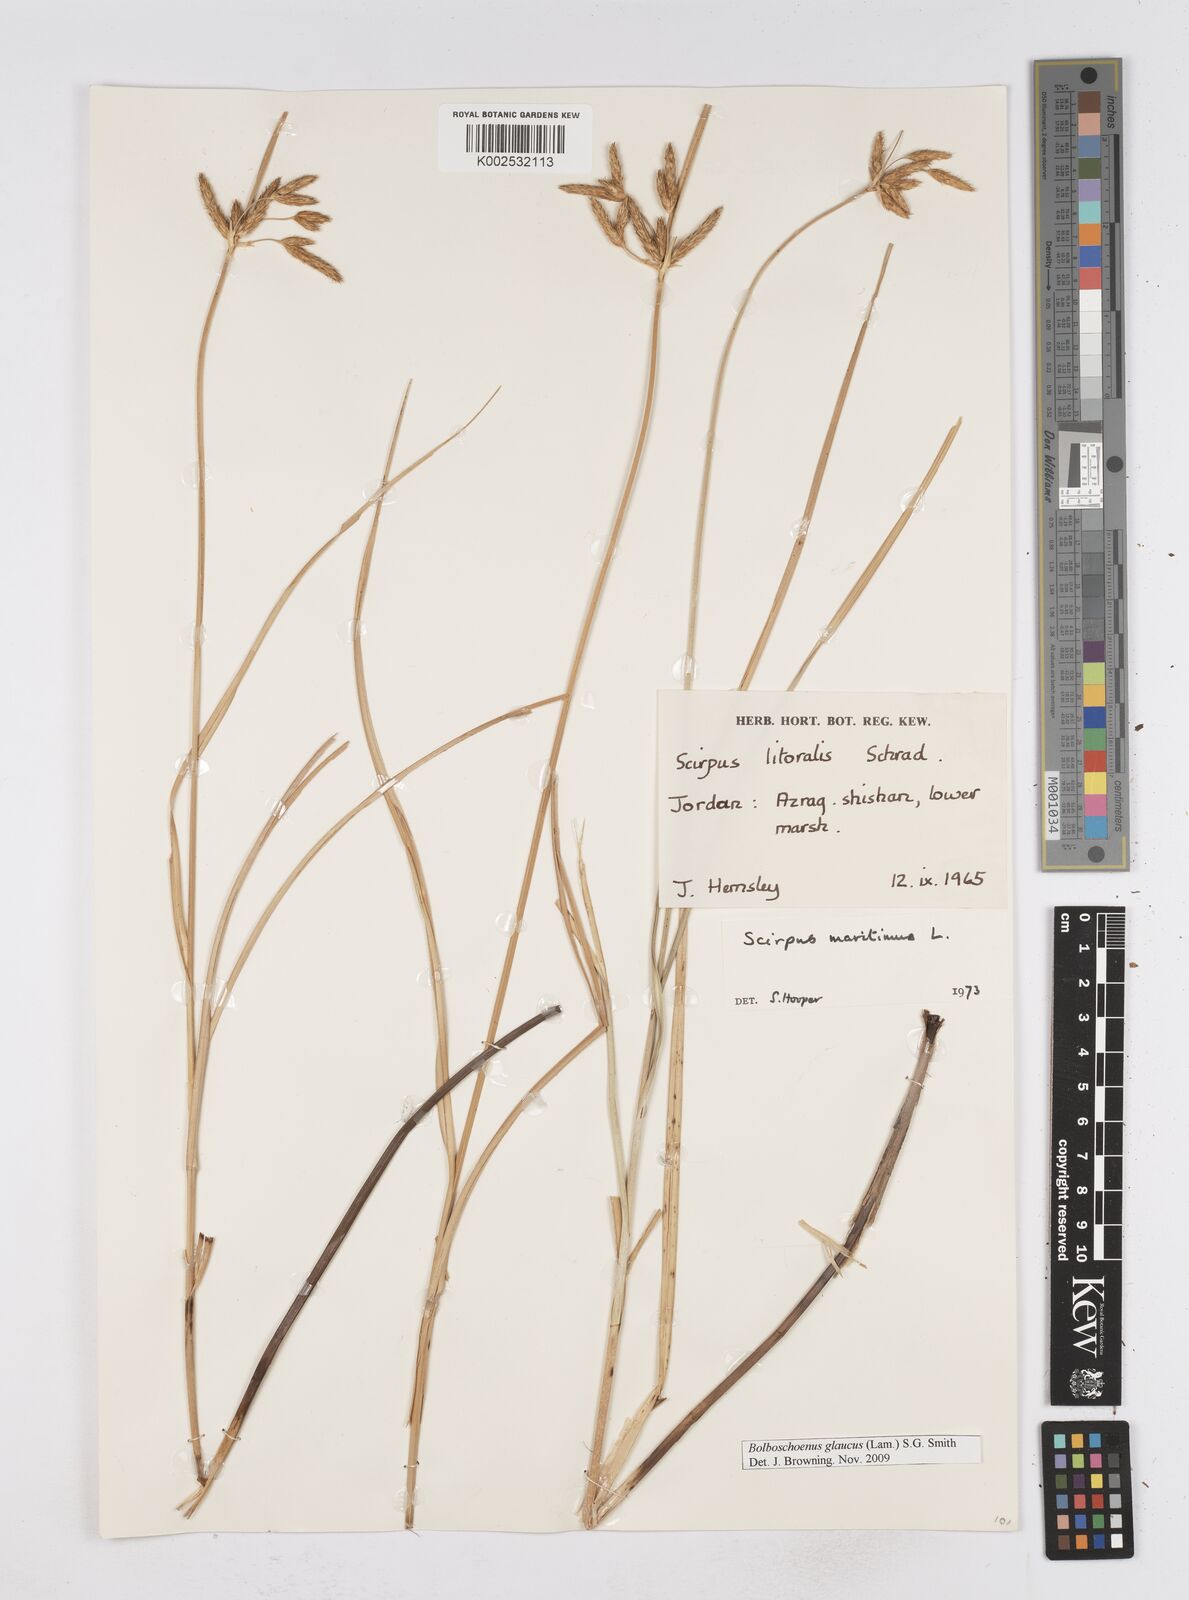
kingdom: Plantae
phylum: Tracheophyta
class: Liliopsida
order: Poales
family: Cyperaceae
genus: Bolboschoenus
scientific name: Bolboschoenus maritimus
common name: Sea club-rush
